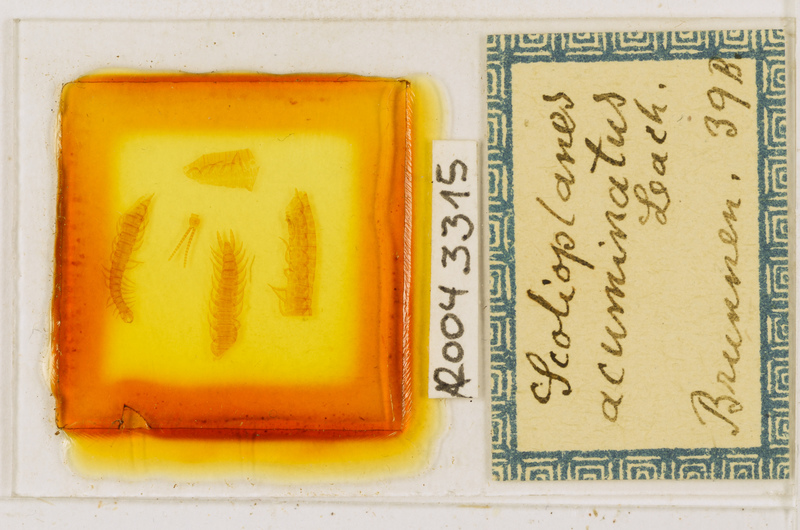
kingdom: Animalia
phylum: Arthropoda
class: Chilopoda
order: Geophilomorpha
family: Linotaeniidae
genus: Strigamia
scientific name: Strigamia acuminata
